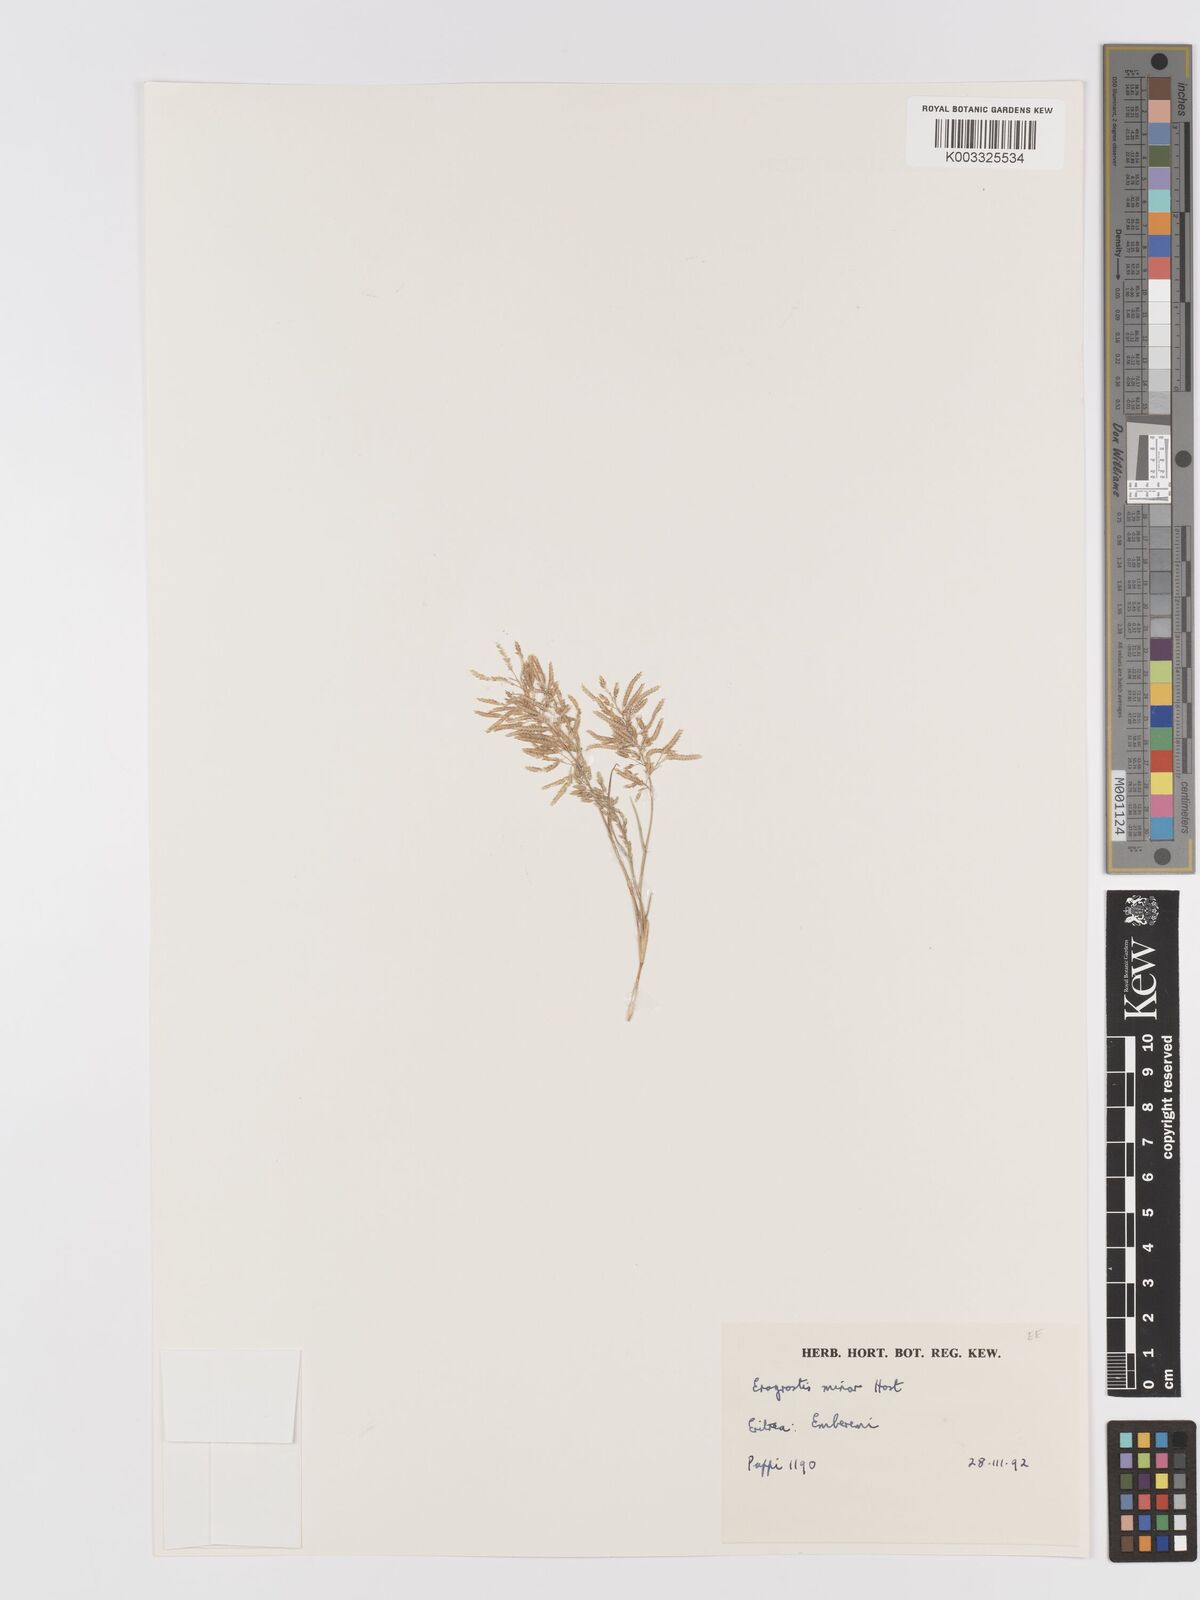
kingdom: Plantae
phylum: Tracheophyta
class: Liliopsida
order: Poales
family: Poaceae
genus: Eragrostis
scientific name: Eragrostis minor
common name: Small love-grass
